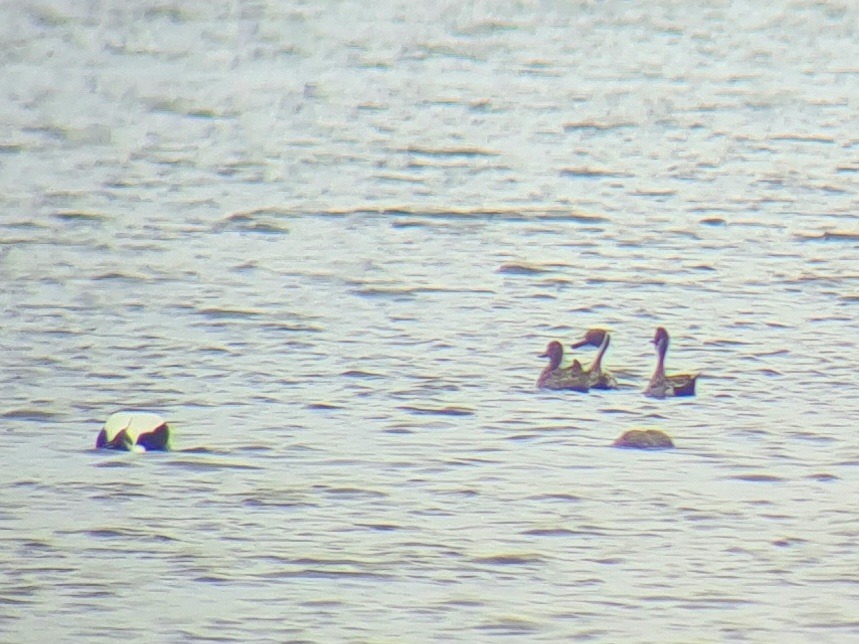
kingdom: Animalia
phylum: Chordata
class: Aves
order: Anseriformes
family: Anatidae
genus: Anas
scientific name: Anas acuta
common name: Spidsand
